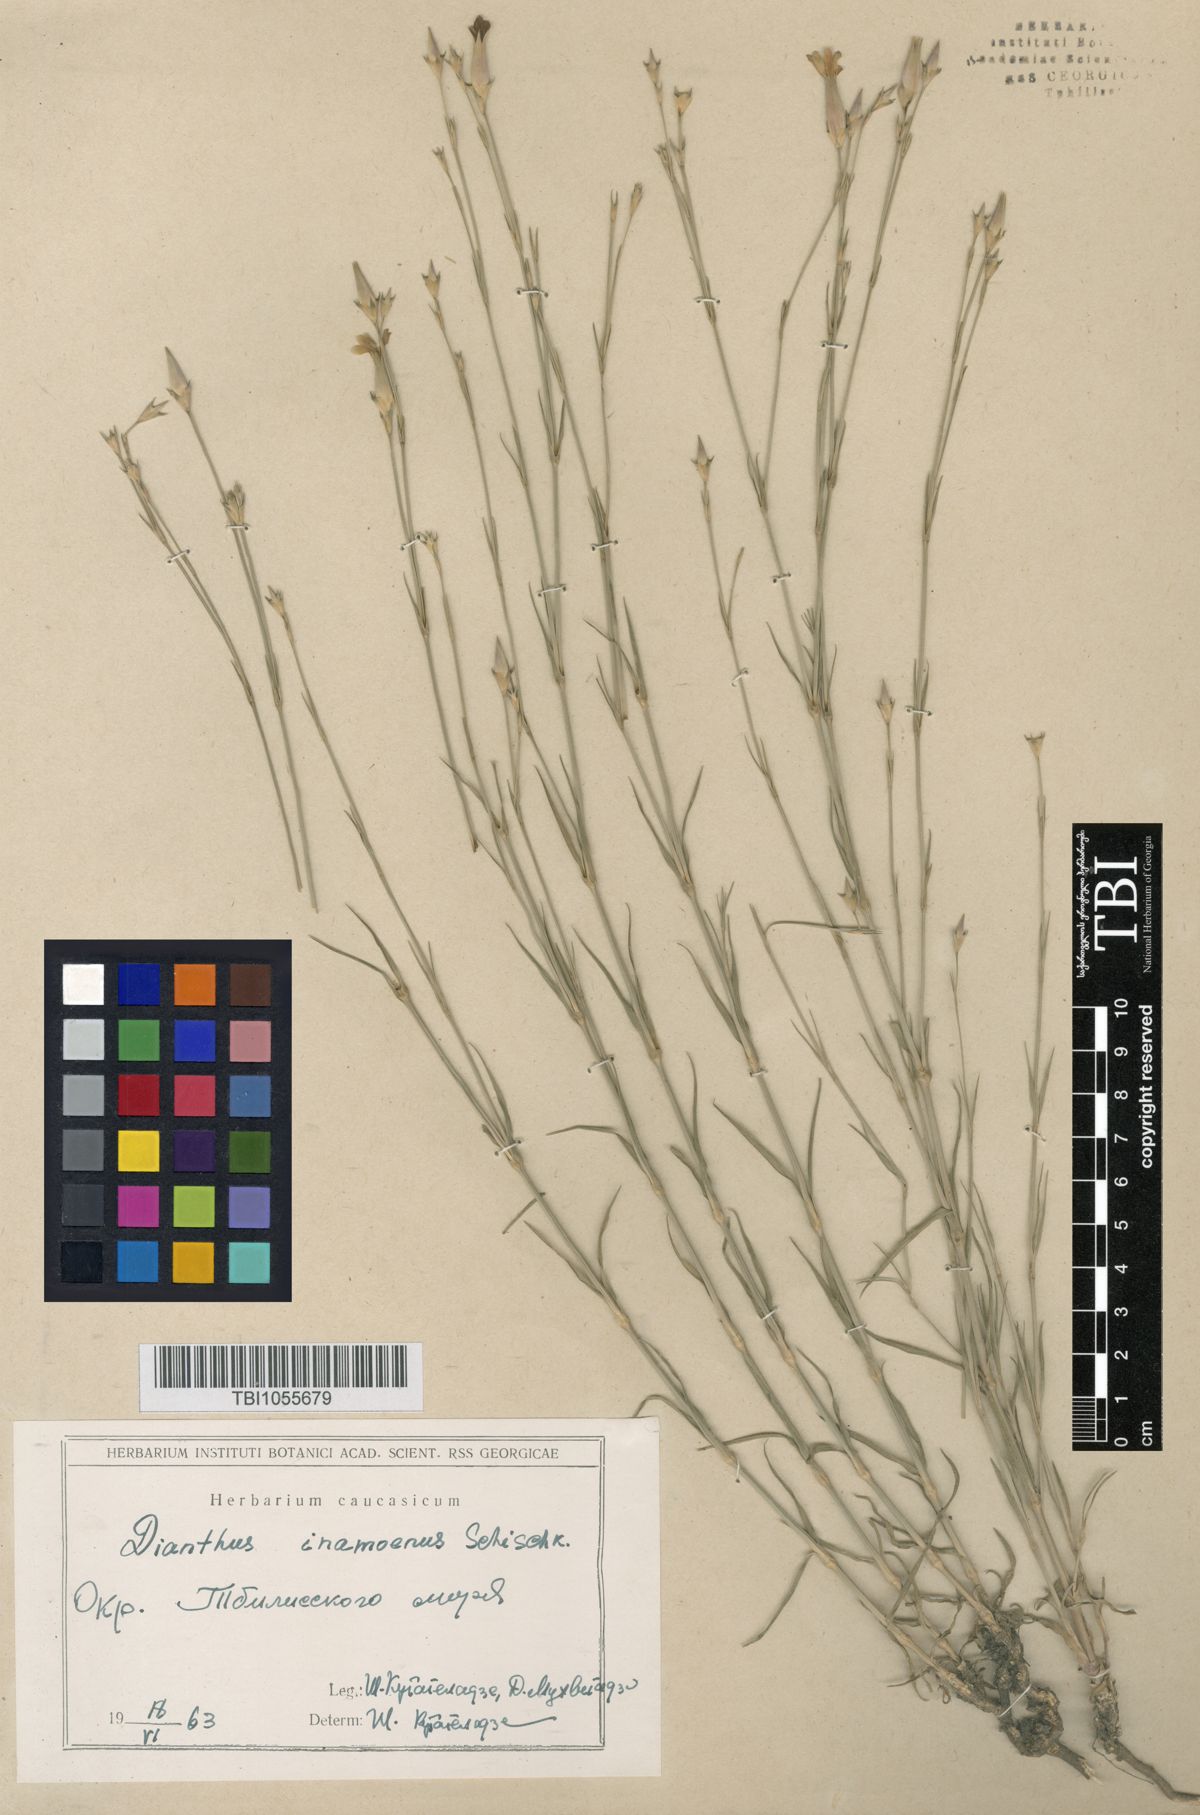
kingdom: Plantae
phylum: Tracheophyta
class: Magnoliopsida
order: Caryophyllales
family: Caryophyllaceae
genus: Dianthus
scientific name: Dianthus inamoenus
